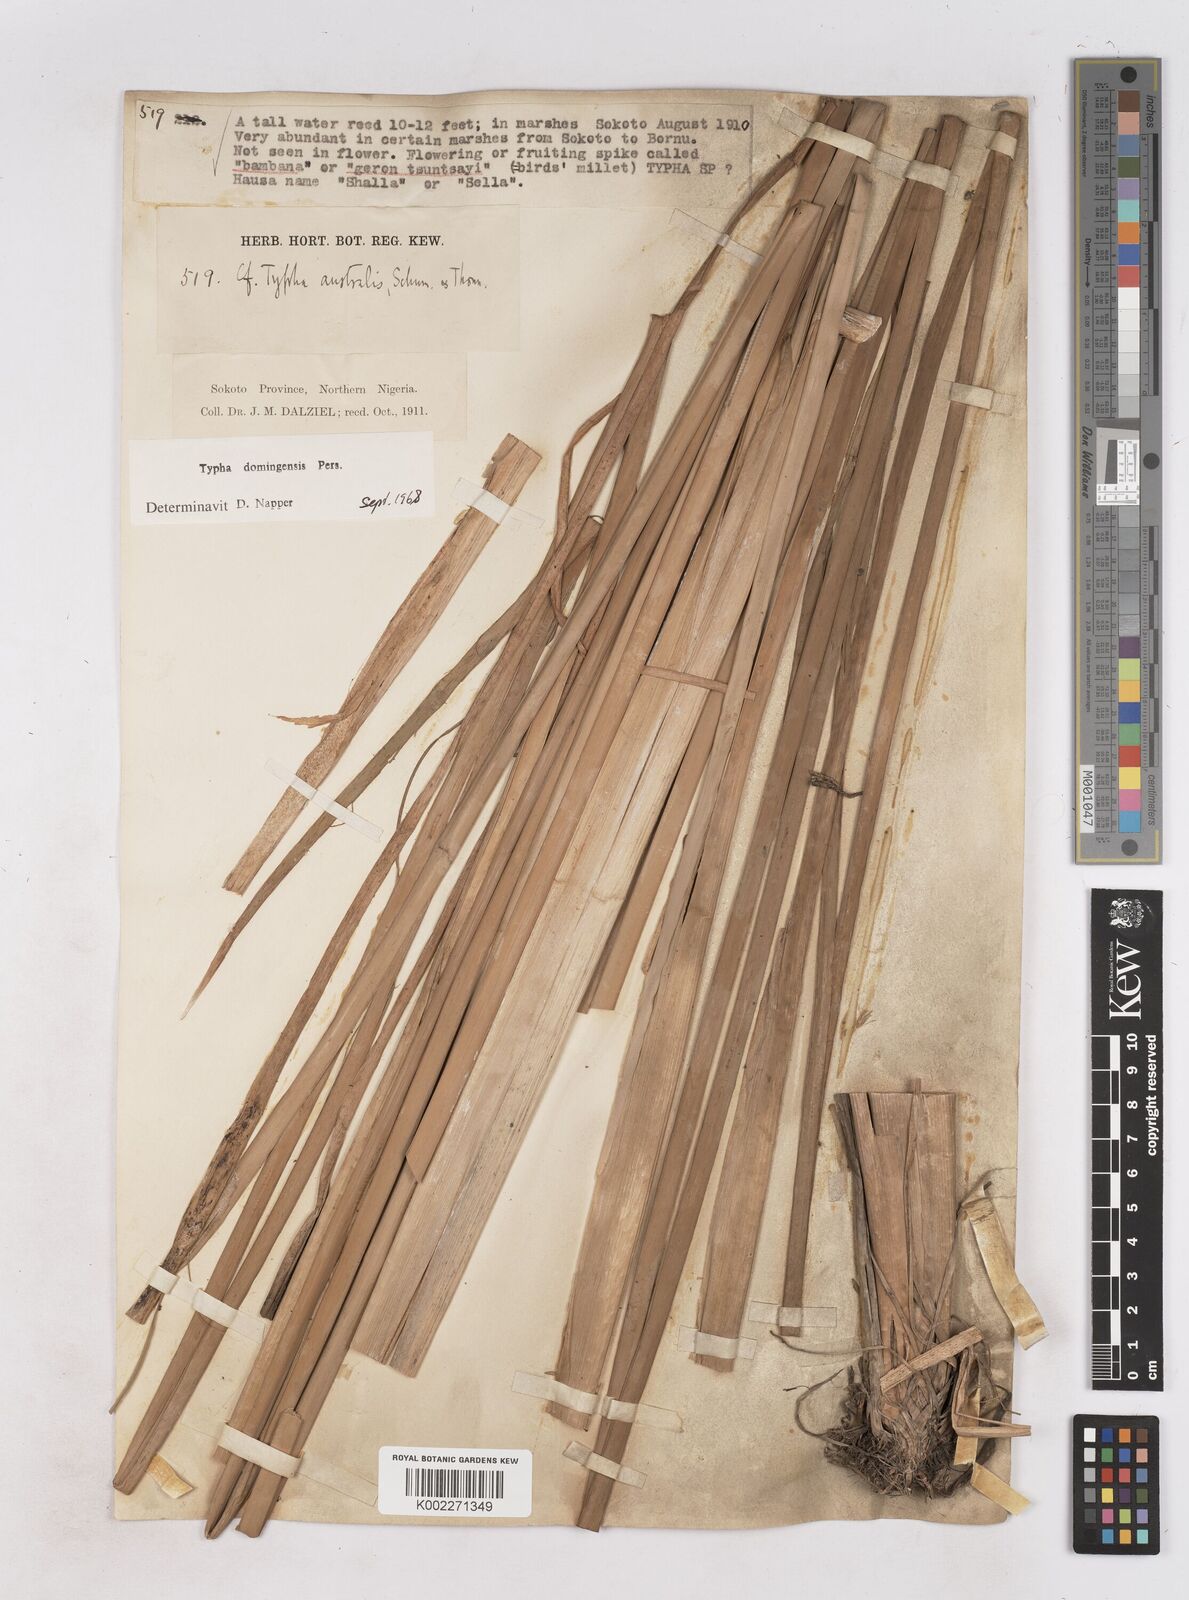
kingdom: Plantae
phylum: Tracheophyta
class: Liliopsida
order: Poales
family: Typhaceae
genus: Typha
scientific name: Typha domingensis
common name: Southern cattail
